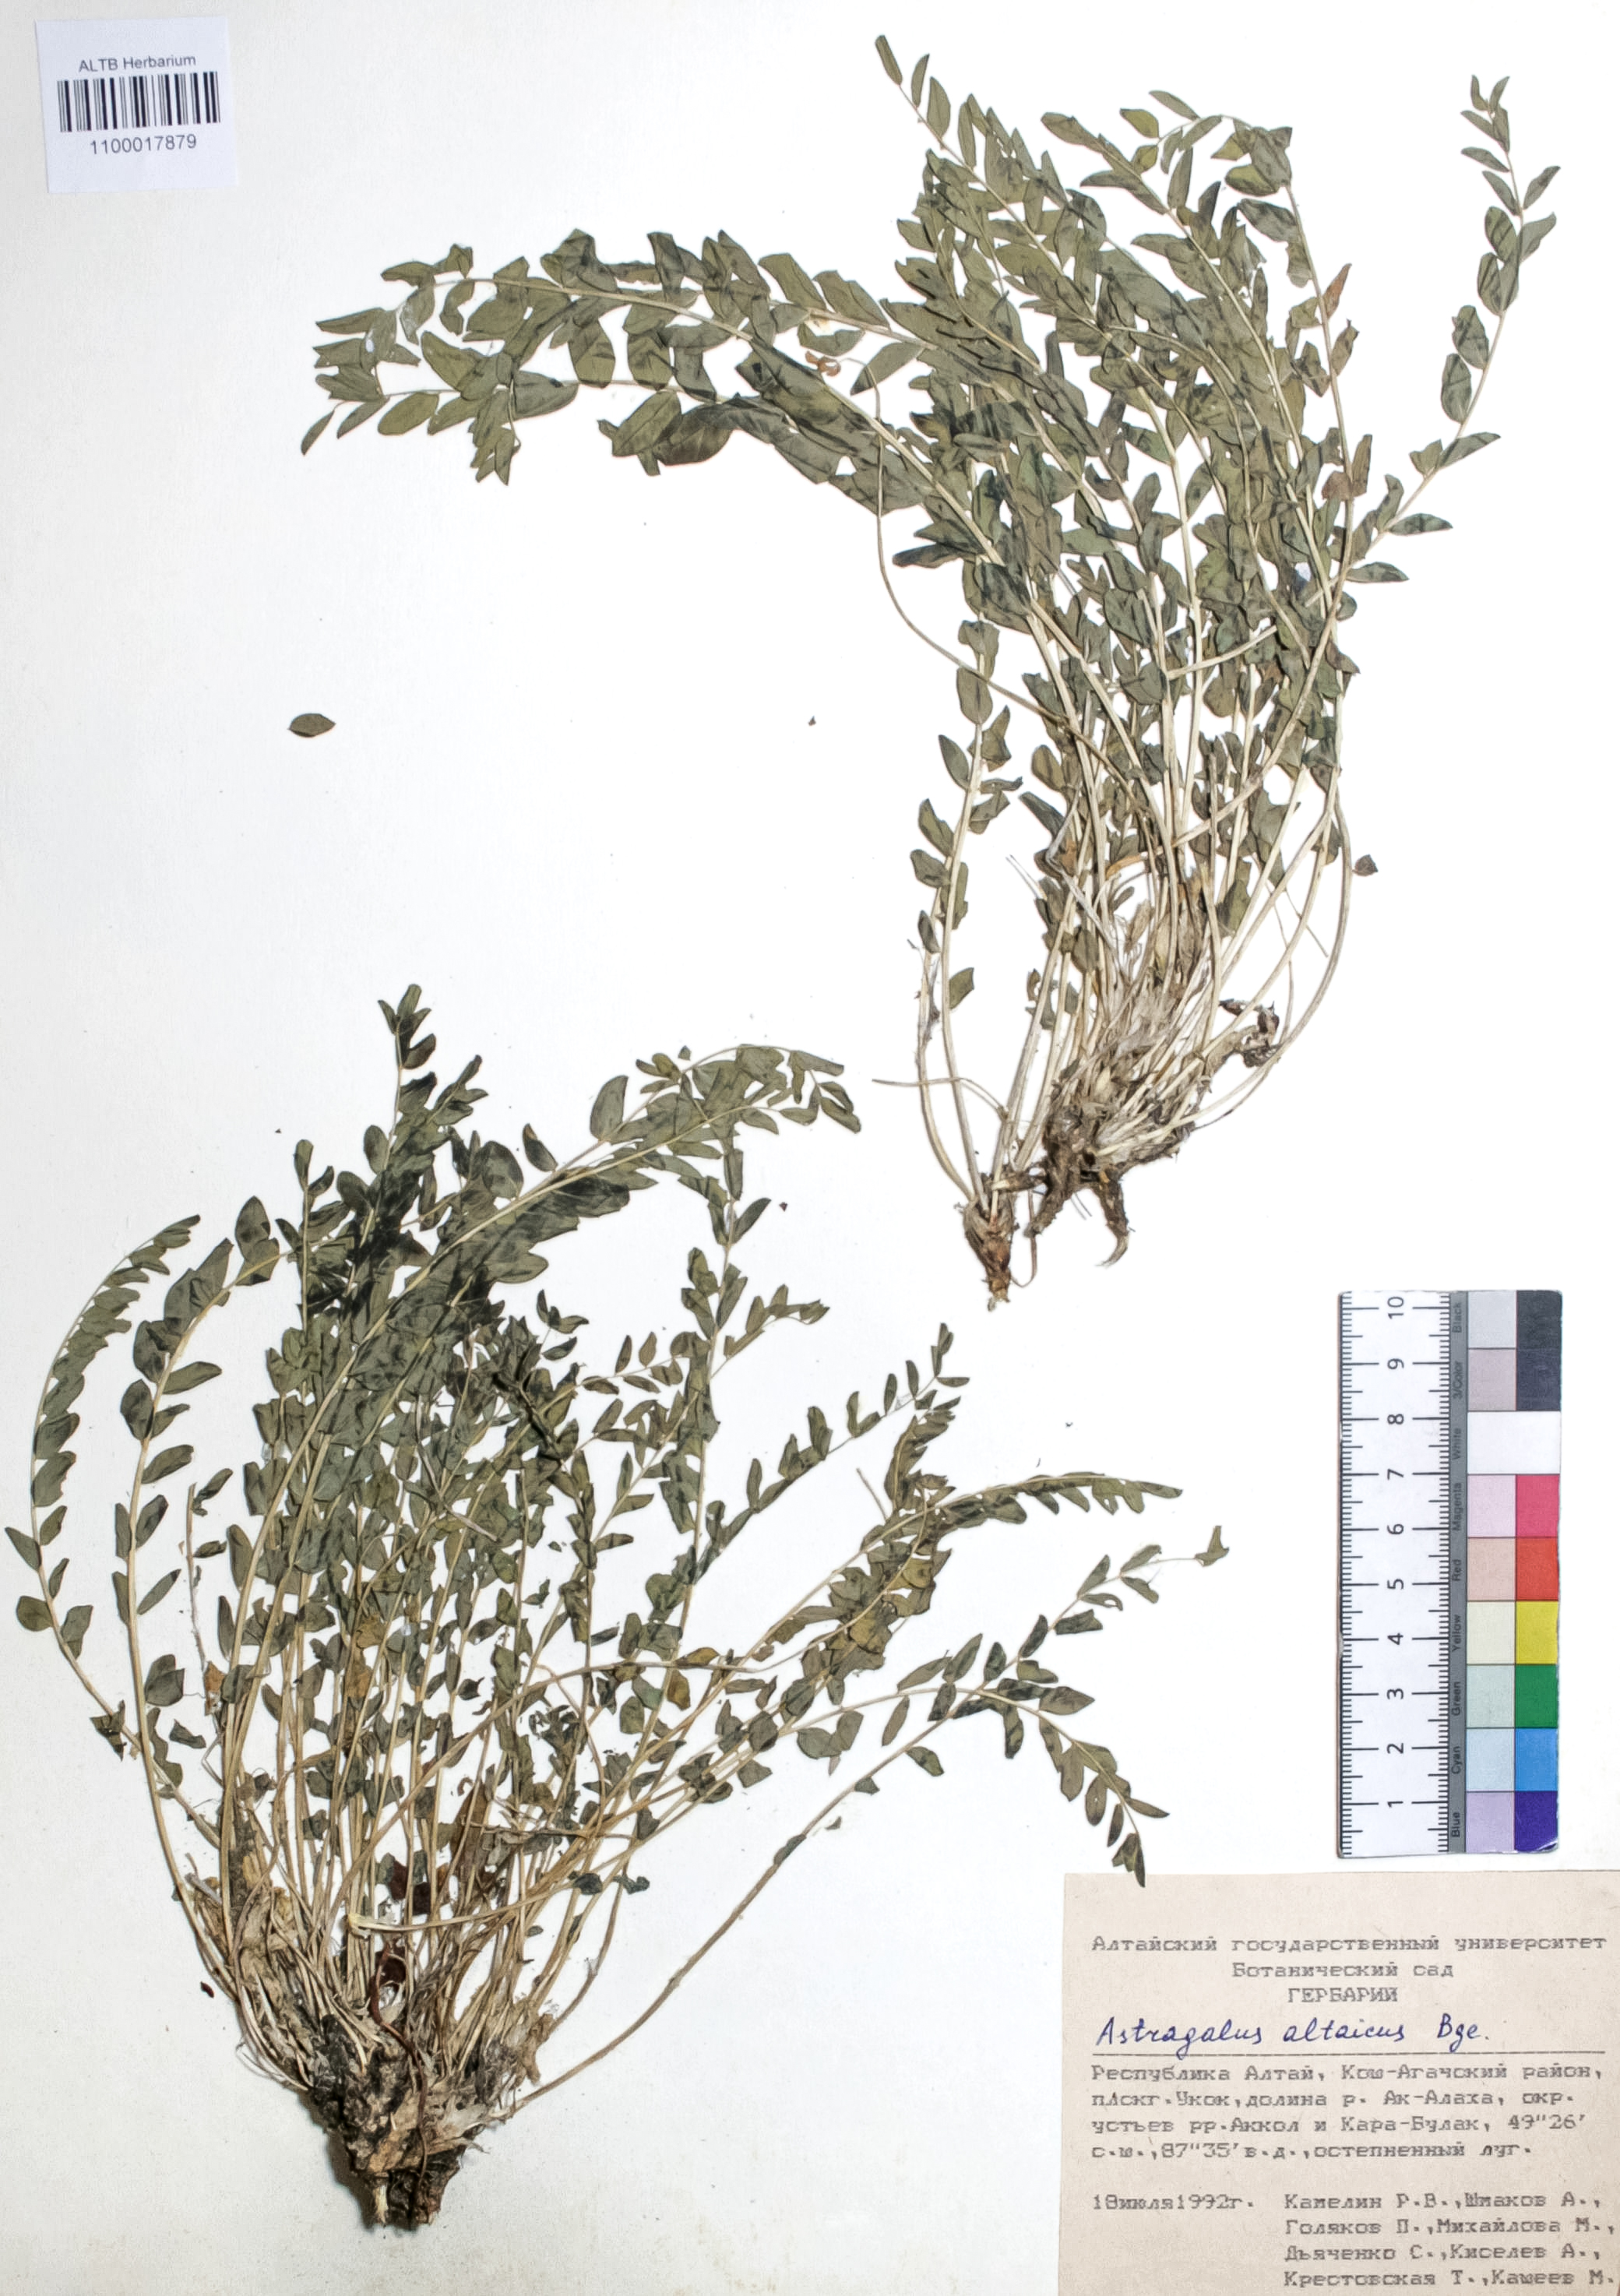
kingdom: Plantae
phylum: Tracheophyta
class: Magnoliopsida
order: Fabales
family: Fabaceae
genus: Astragalus
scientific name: Astragalus altaicola
